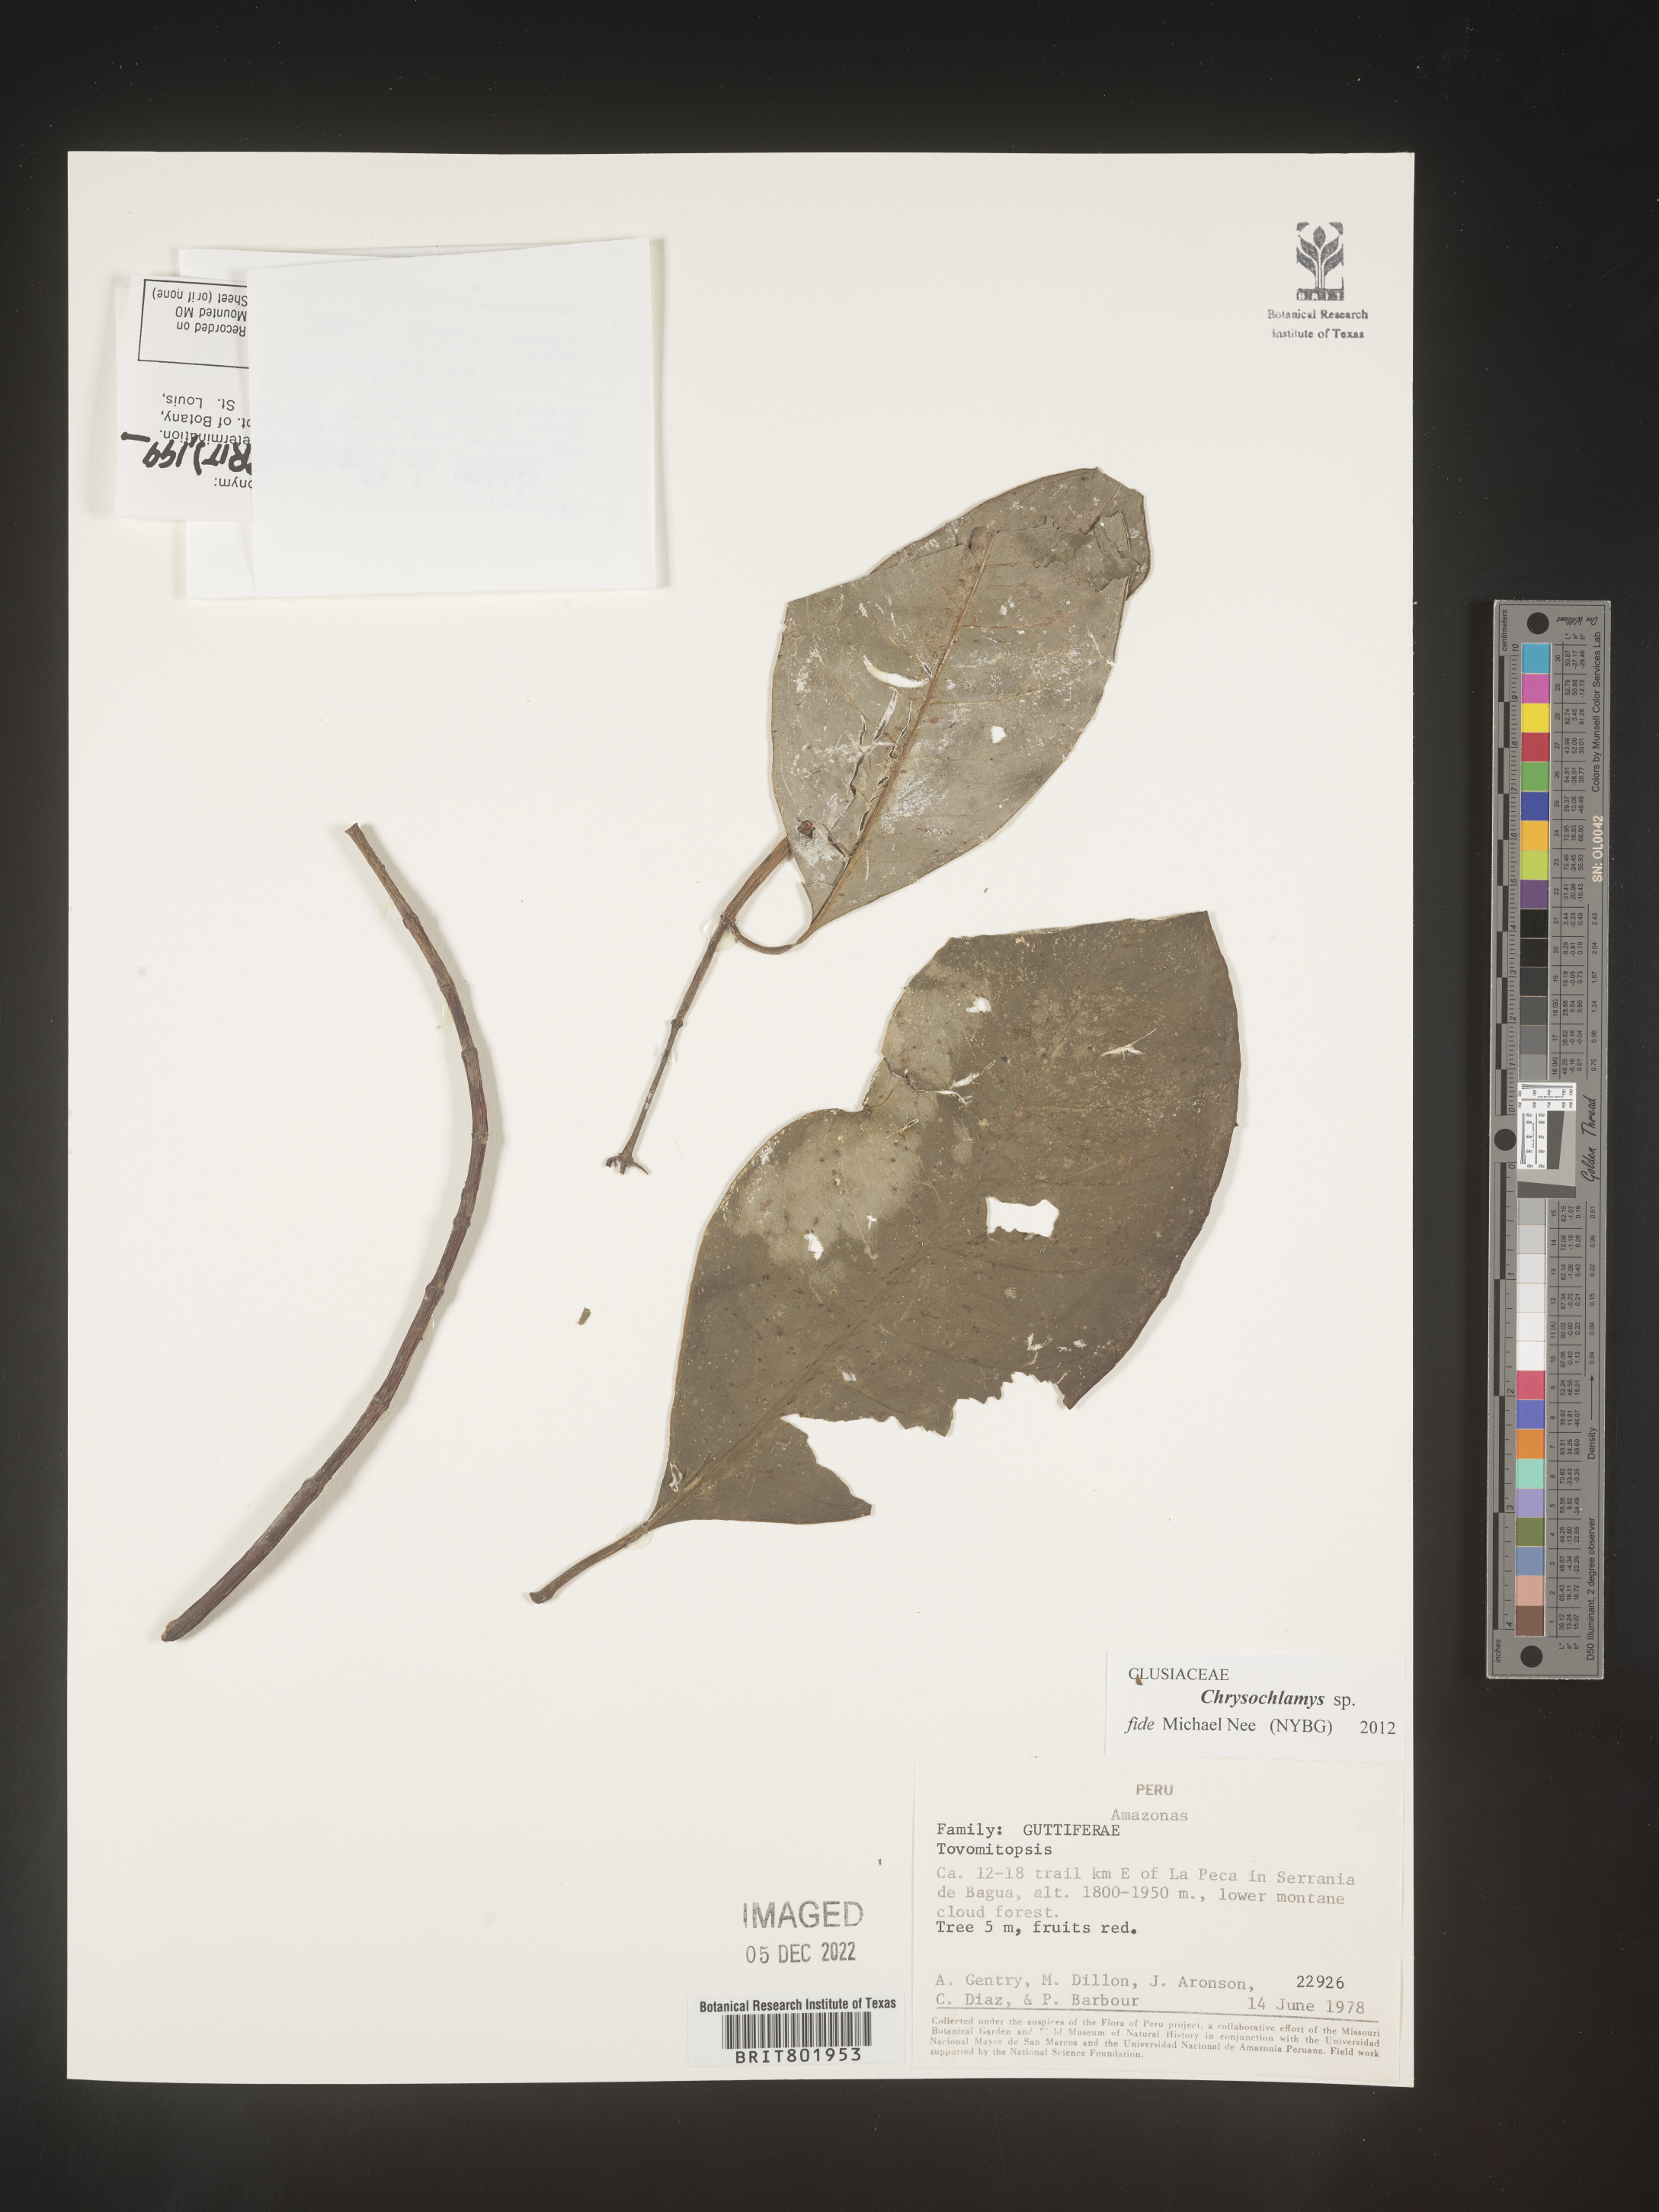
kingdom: Plantae
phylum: Tracheophyta
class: Magnoliopsida
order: Malpighiales
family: Clusiaceae
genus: Chrysochlamys
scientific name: Chrysochlamys
